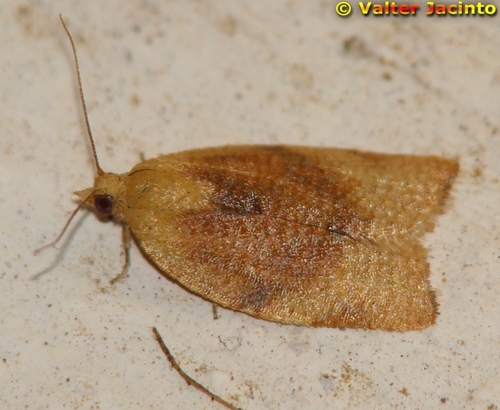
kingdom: Animalia
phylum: Arthropoda
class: Insecta
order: Lepidoptera
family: Tortricidae
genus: Clepsis
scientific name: Clepsis consimilana
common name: Privet tortrix
